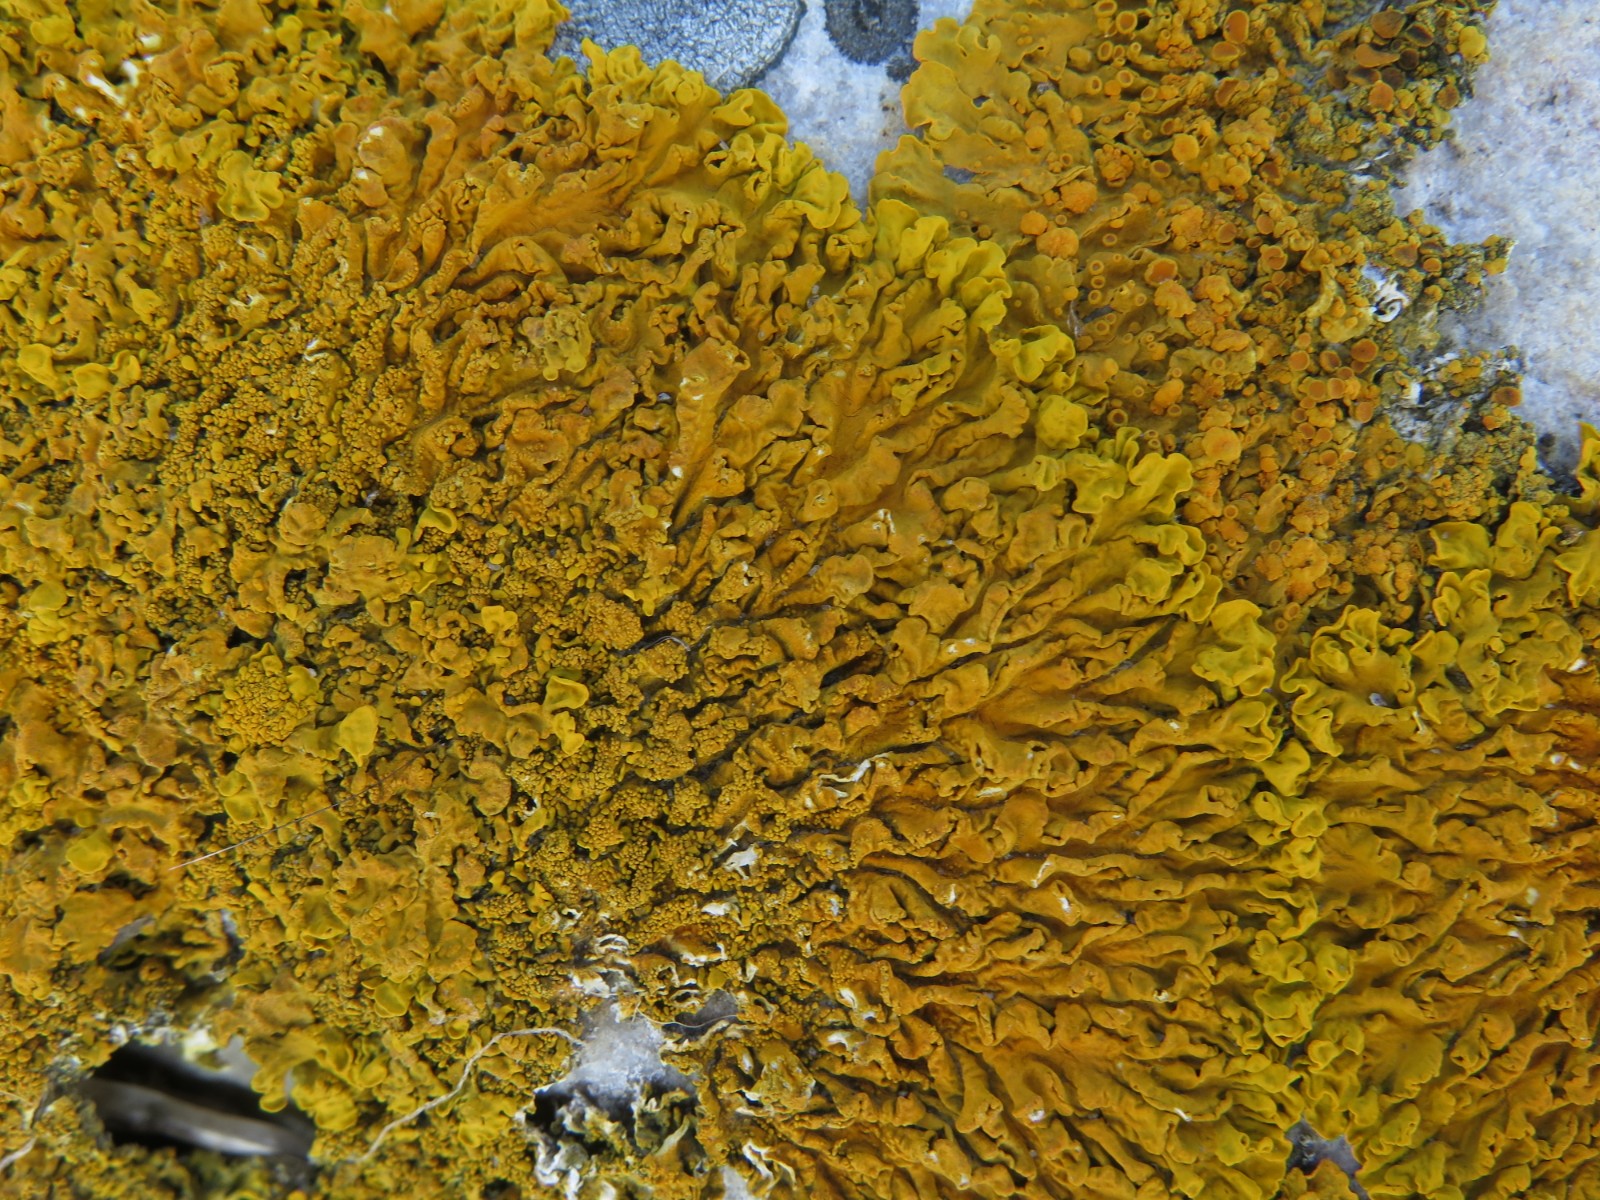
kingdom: Fungi
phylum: Ascomycota
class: Lecanoromycetes
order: Teloschistales
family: Teloschistaceae
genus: Xanthoria
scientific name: Xanthoria calcicola
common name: vortet væggelav
